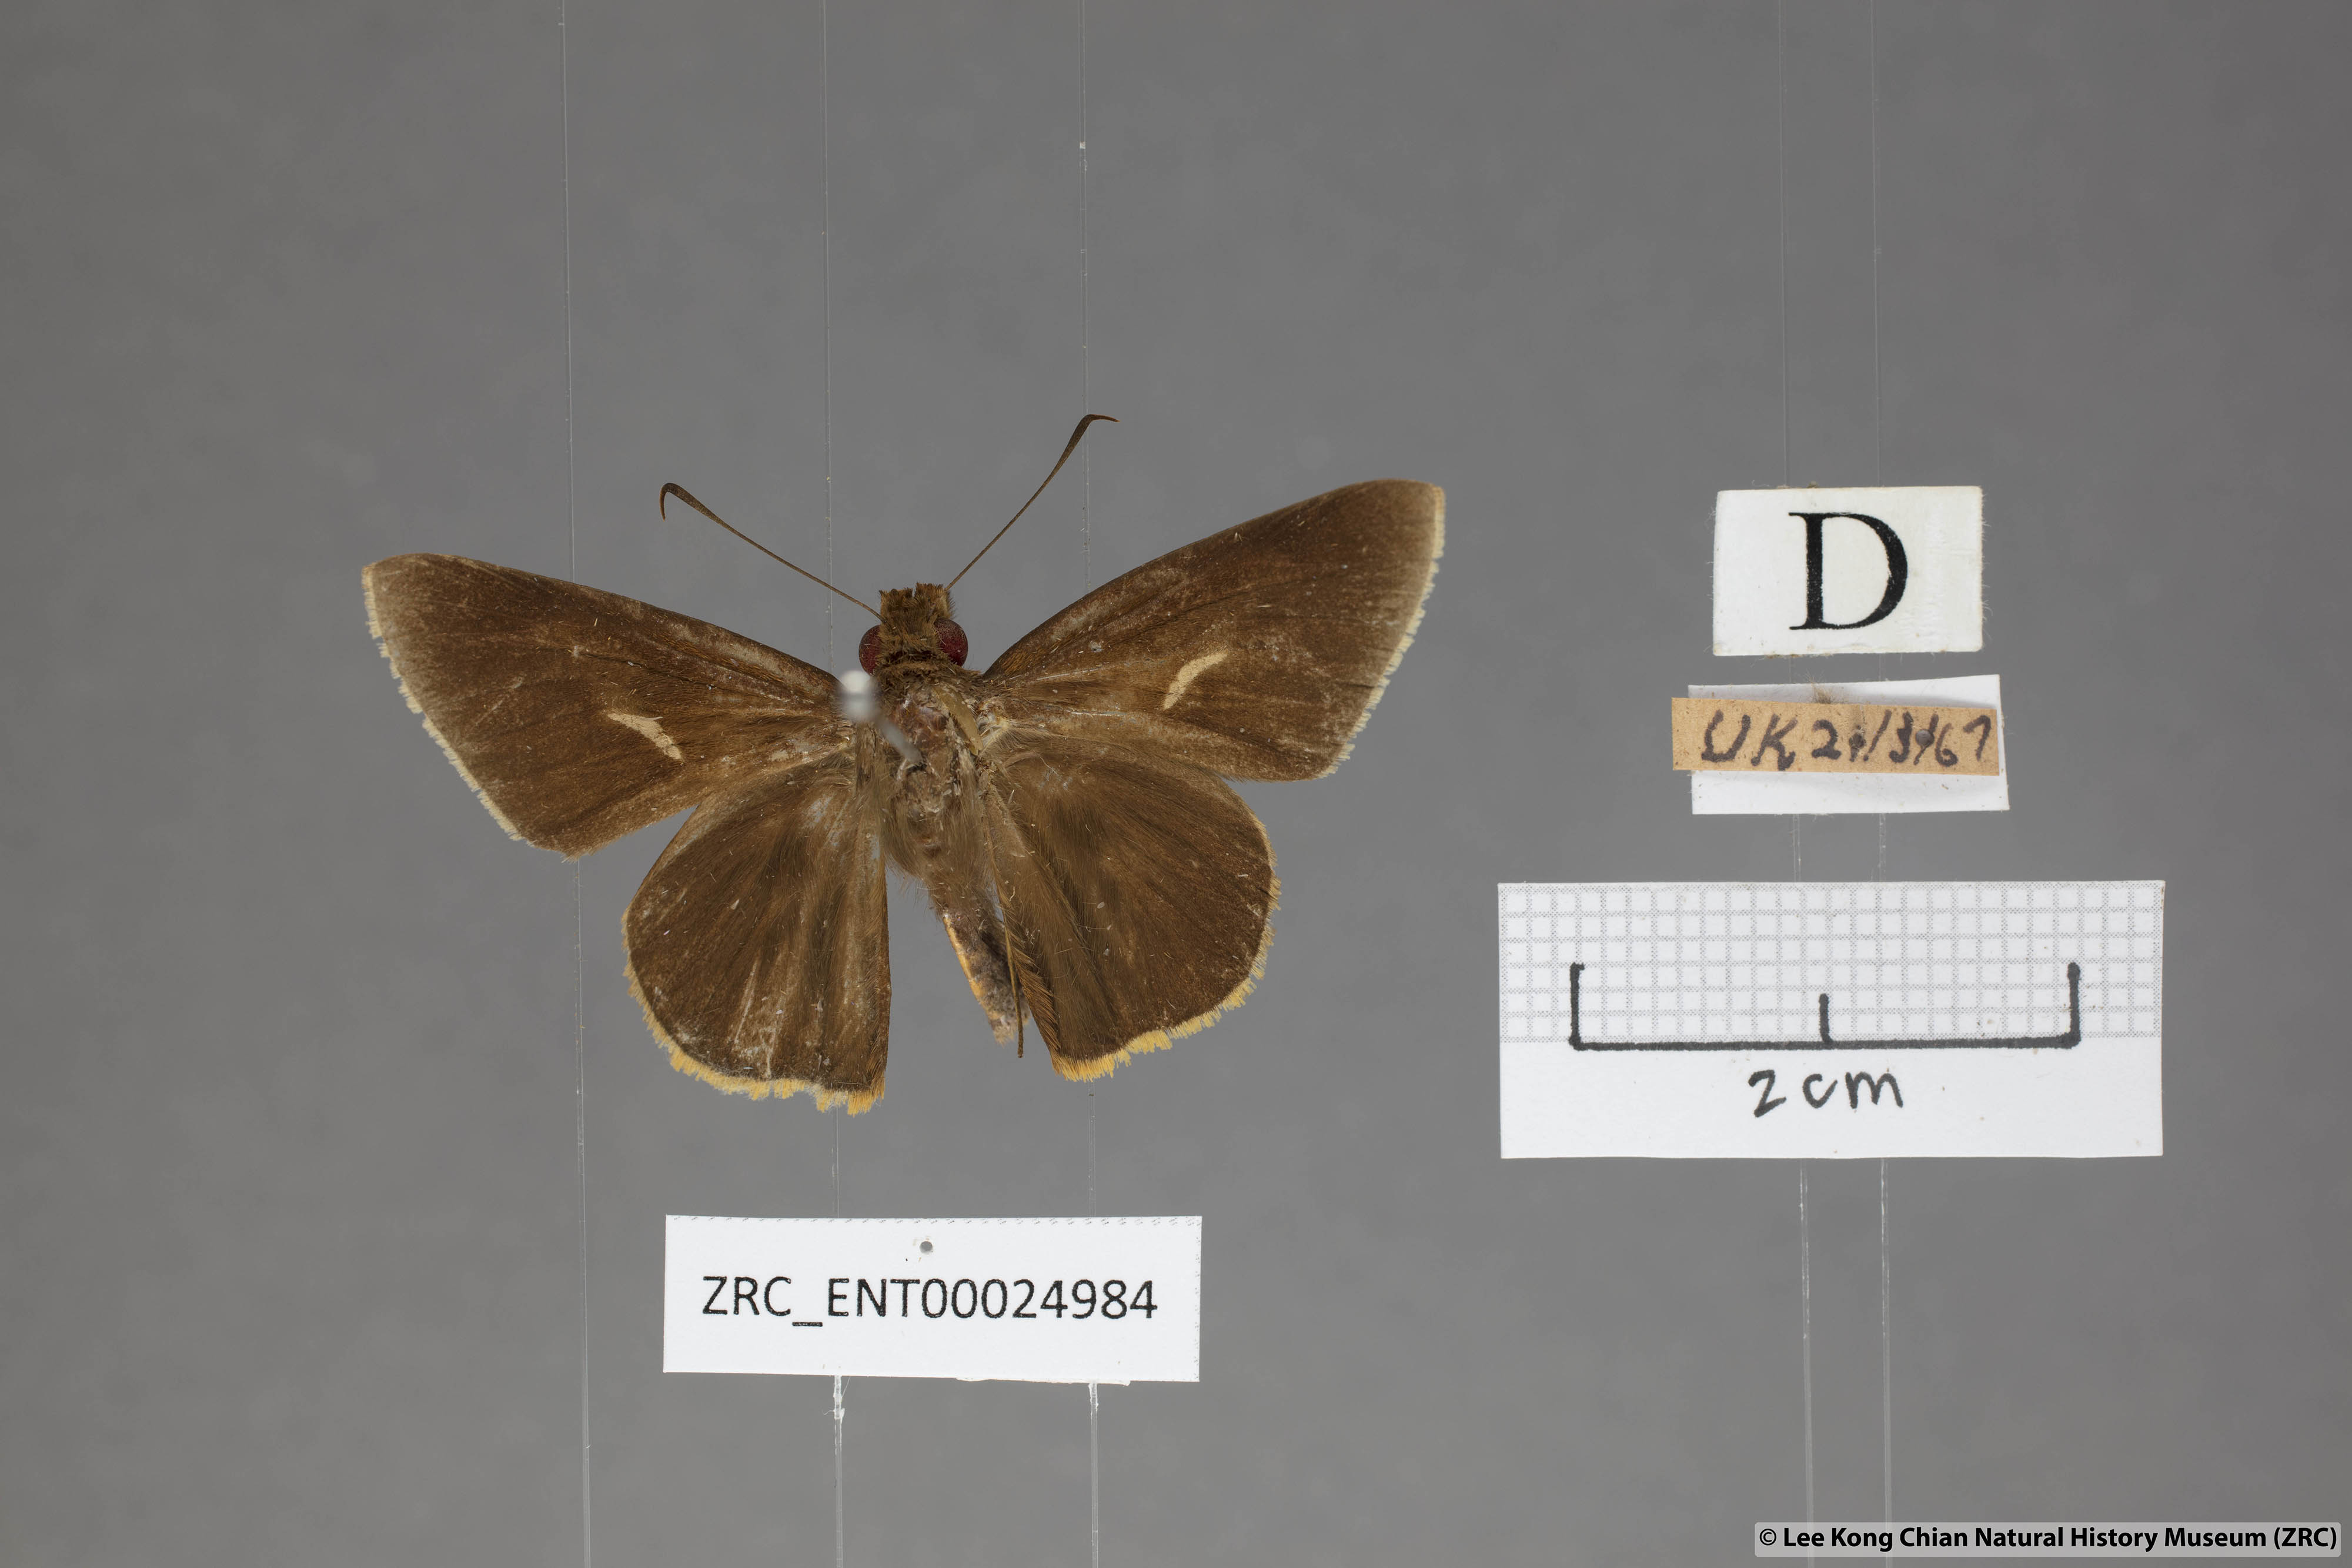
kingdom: Animalia
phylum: Arthropoda
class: Insecta
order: Lepidoptera
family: Hesperiidae
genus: Matapa
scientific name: Matapa druna
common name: Grey-brand redeye
